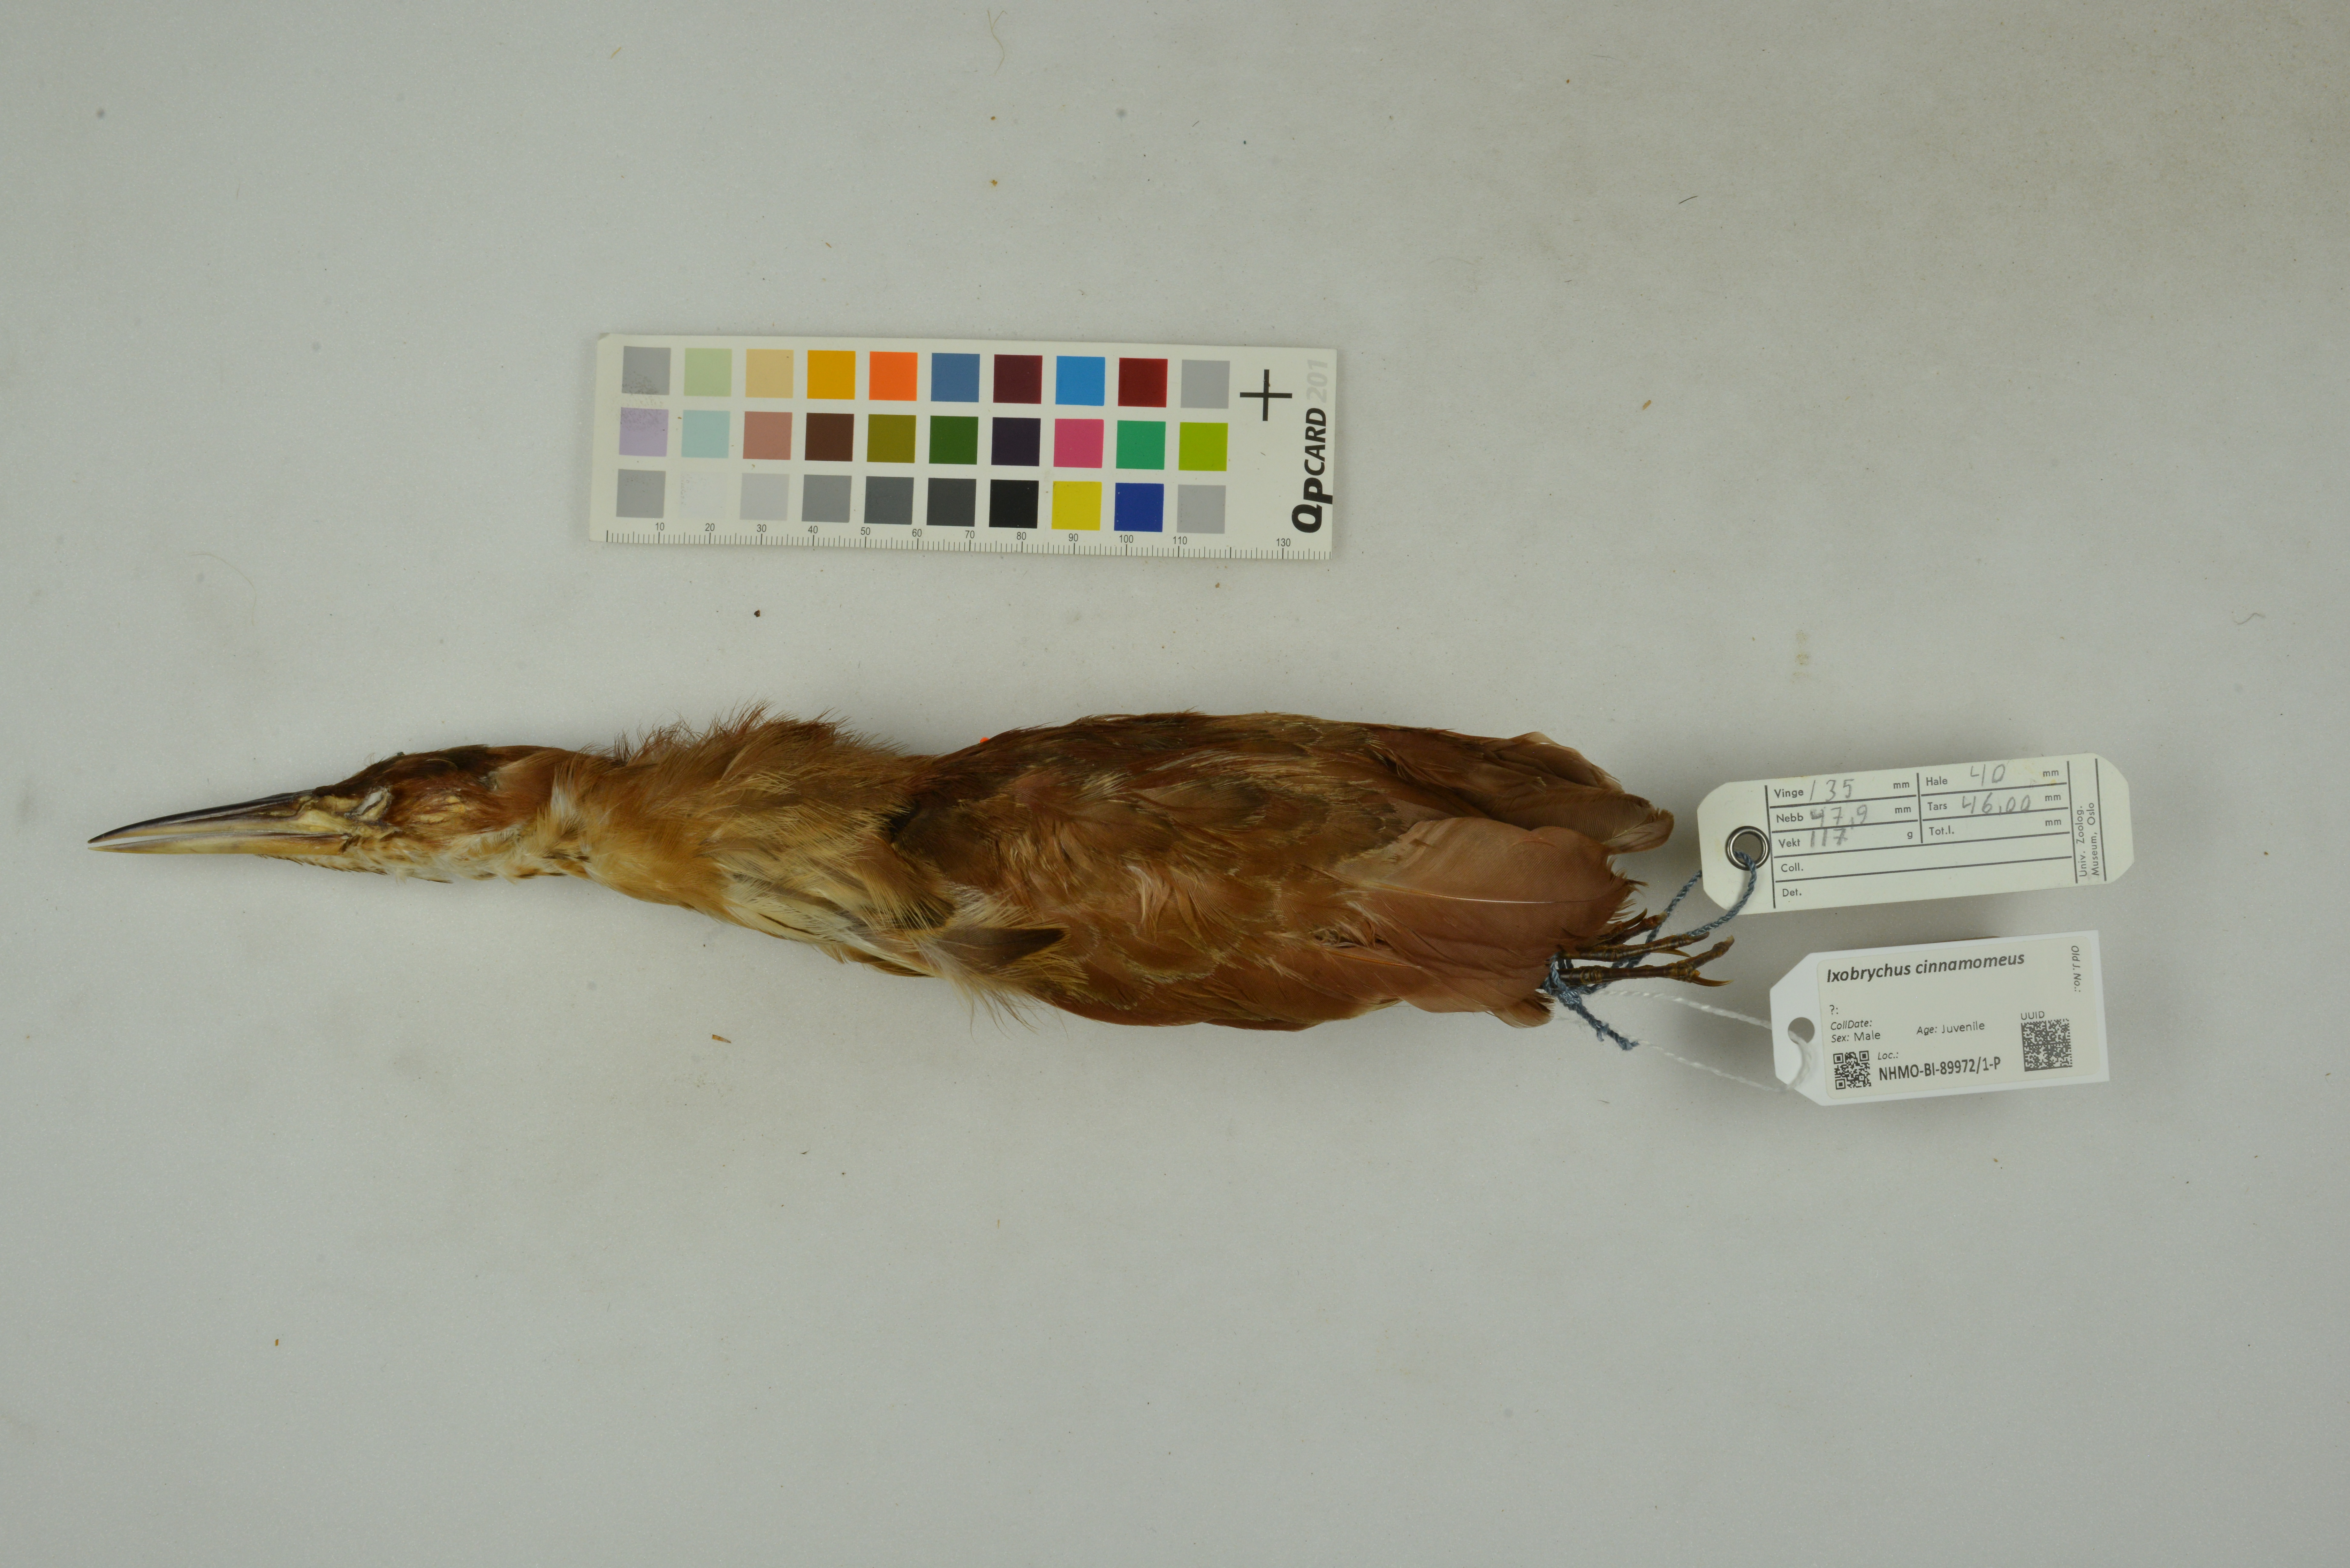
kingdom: Animalia
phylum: Chordata
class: Aves
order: Pelecaniformes
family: Ardeidae
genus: Ixobrychus
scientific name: Ixobrychus cinnamomeus
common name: Cinnamon bittern
